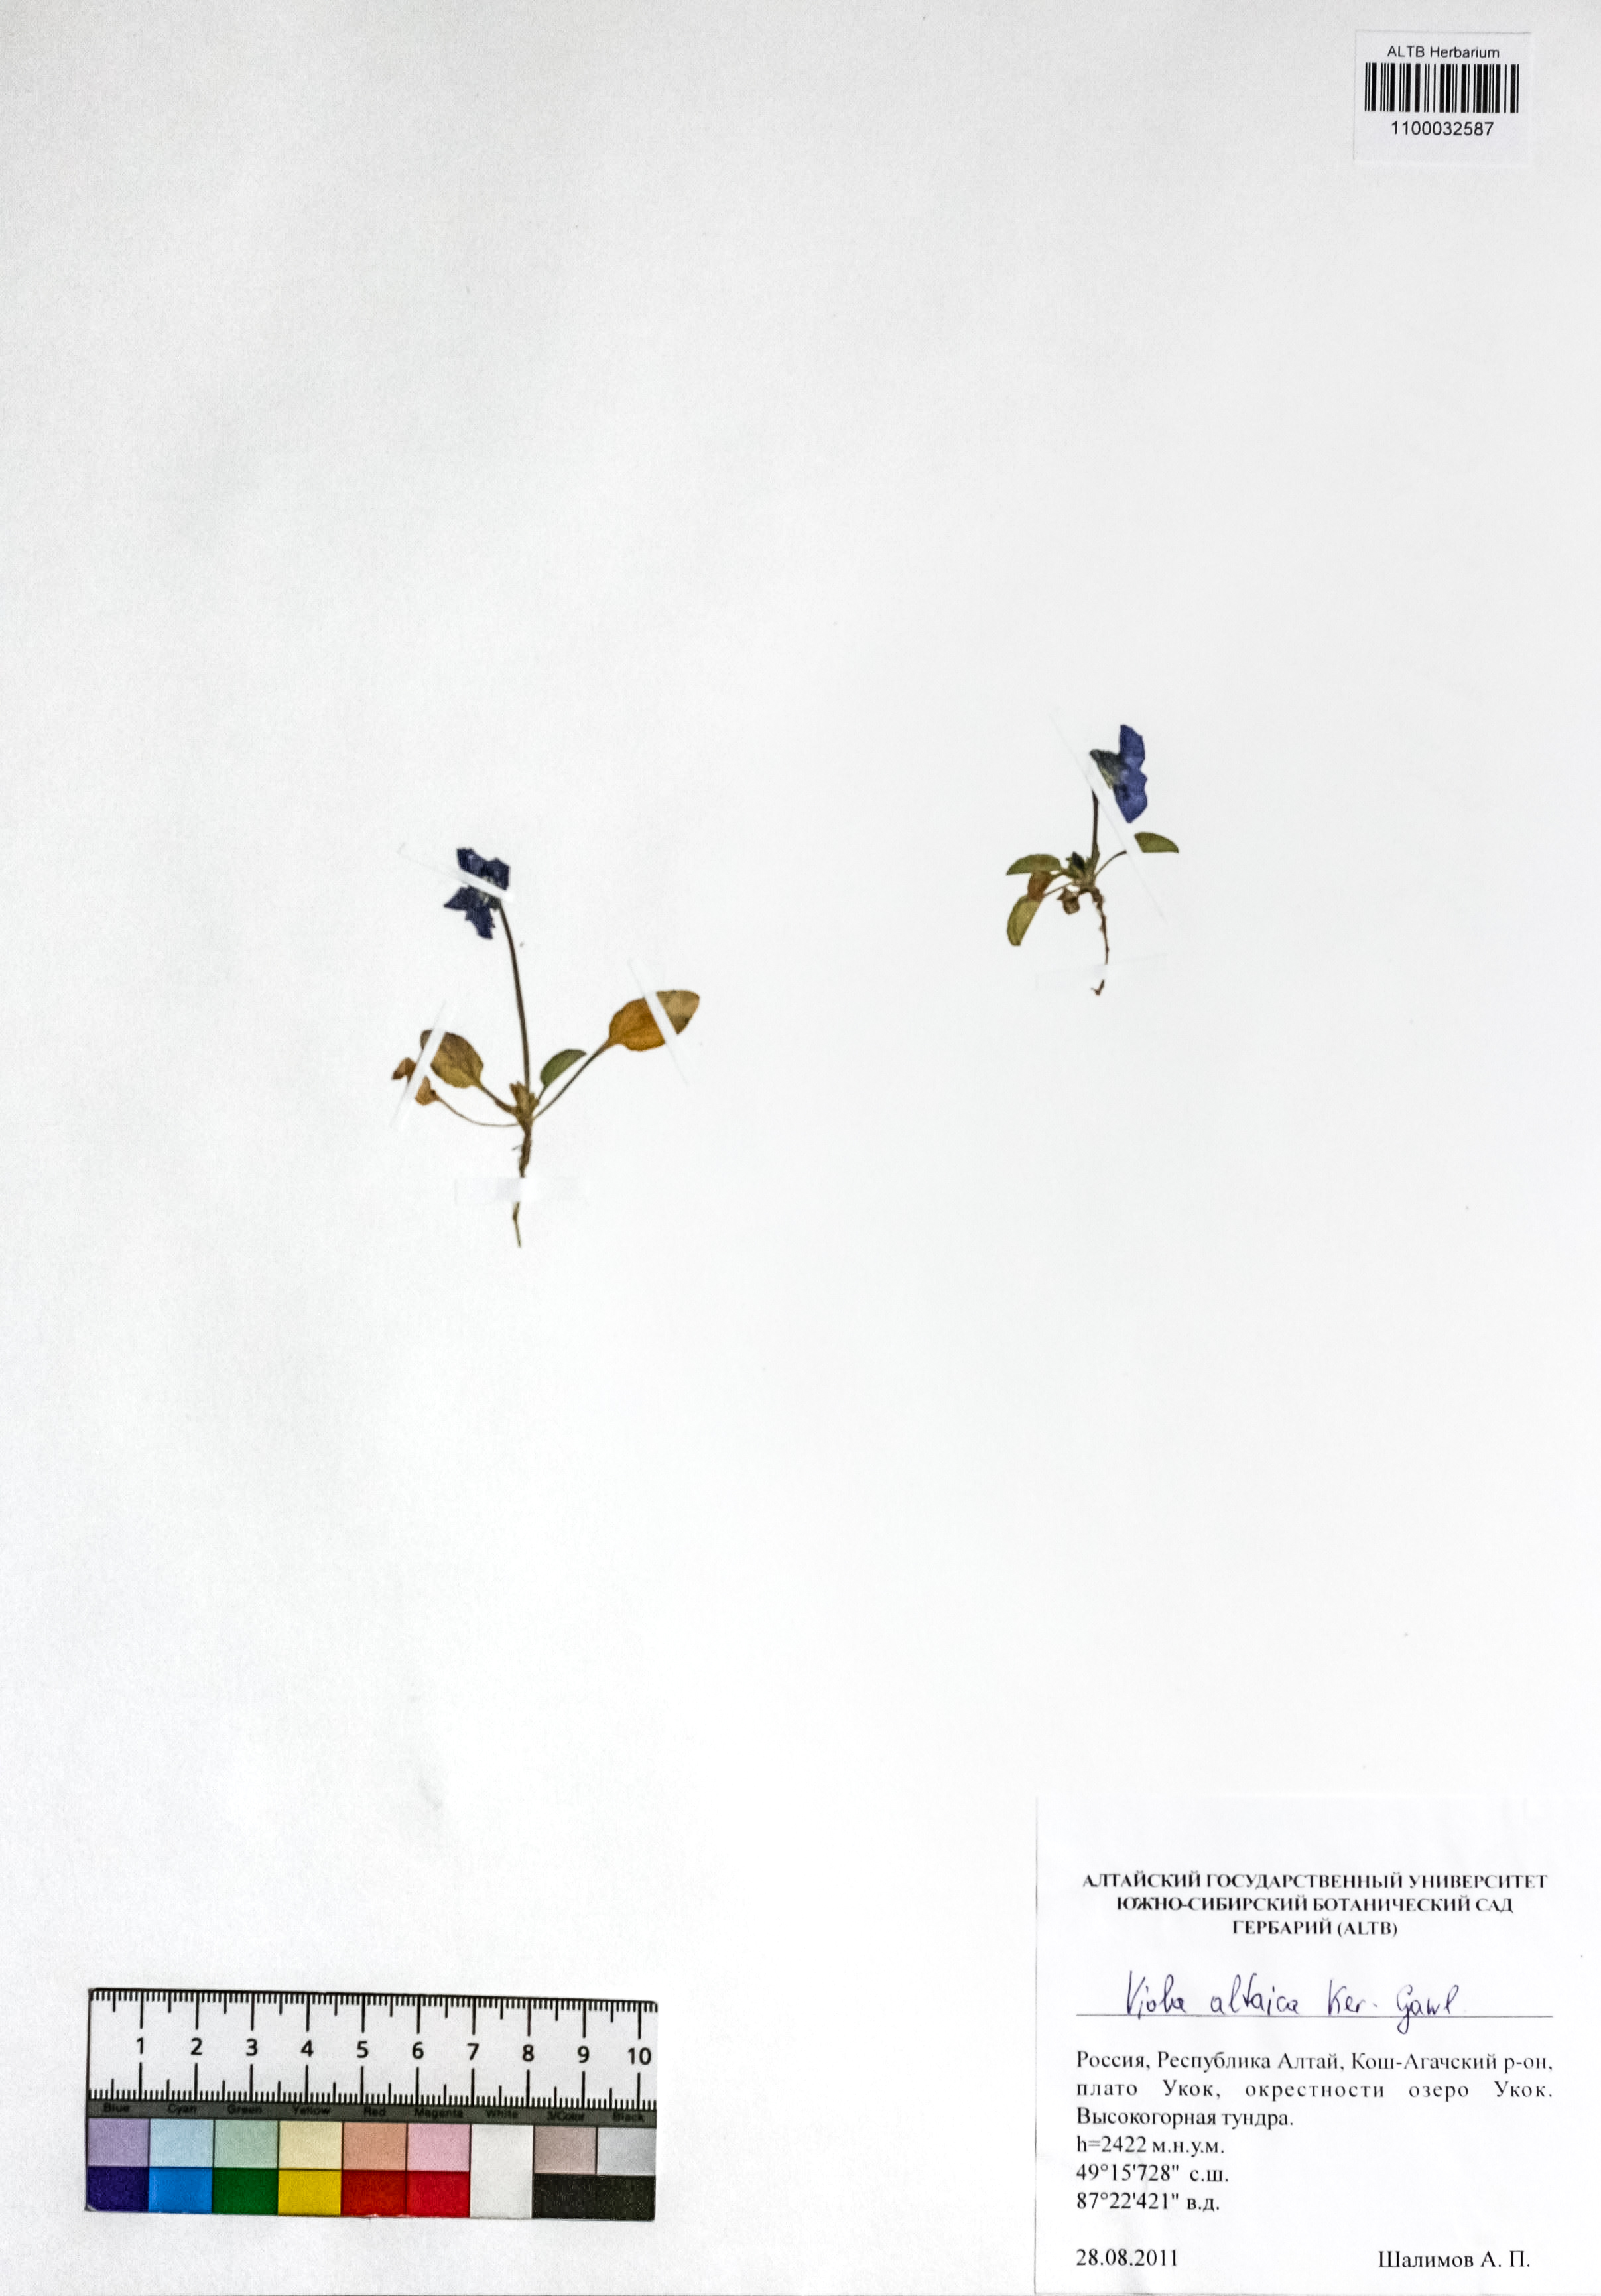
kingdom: Plantae
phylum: Tracheophyta
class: Magnoliopsida
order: Malpighiales
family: Violaceae
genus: Viola
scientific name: Viola altaica
